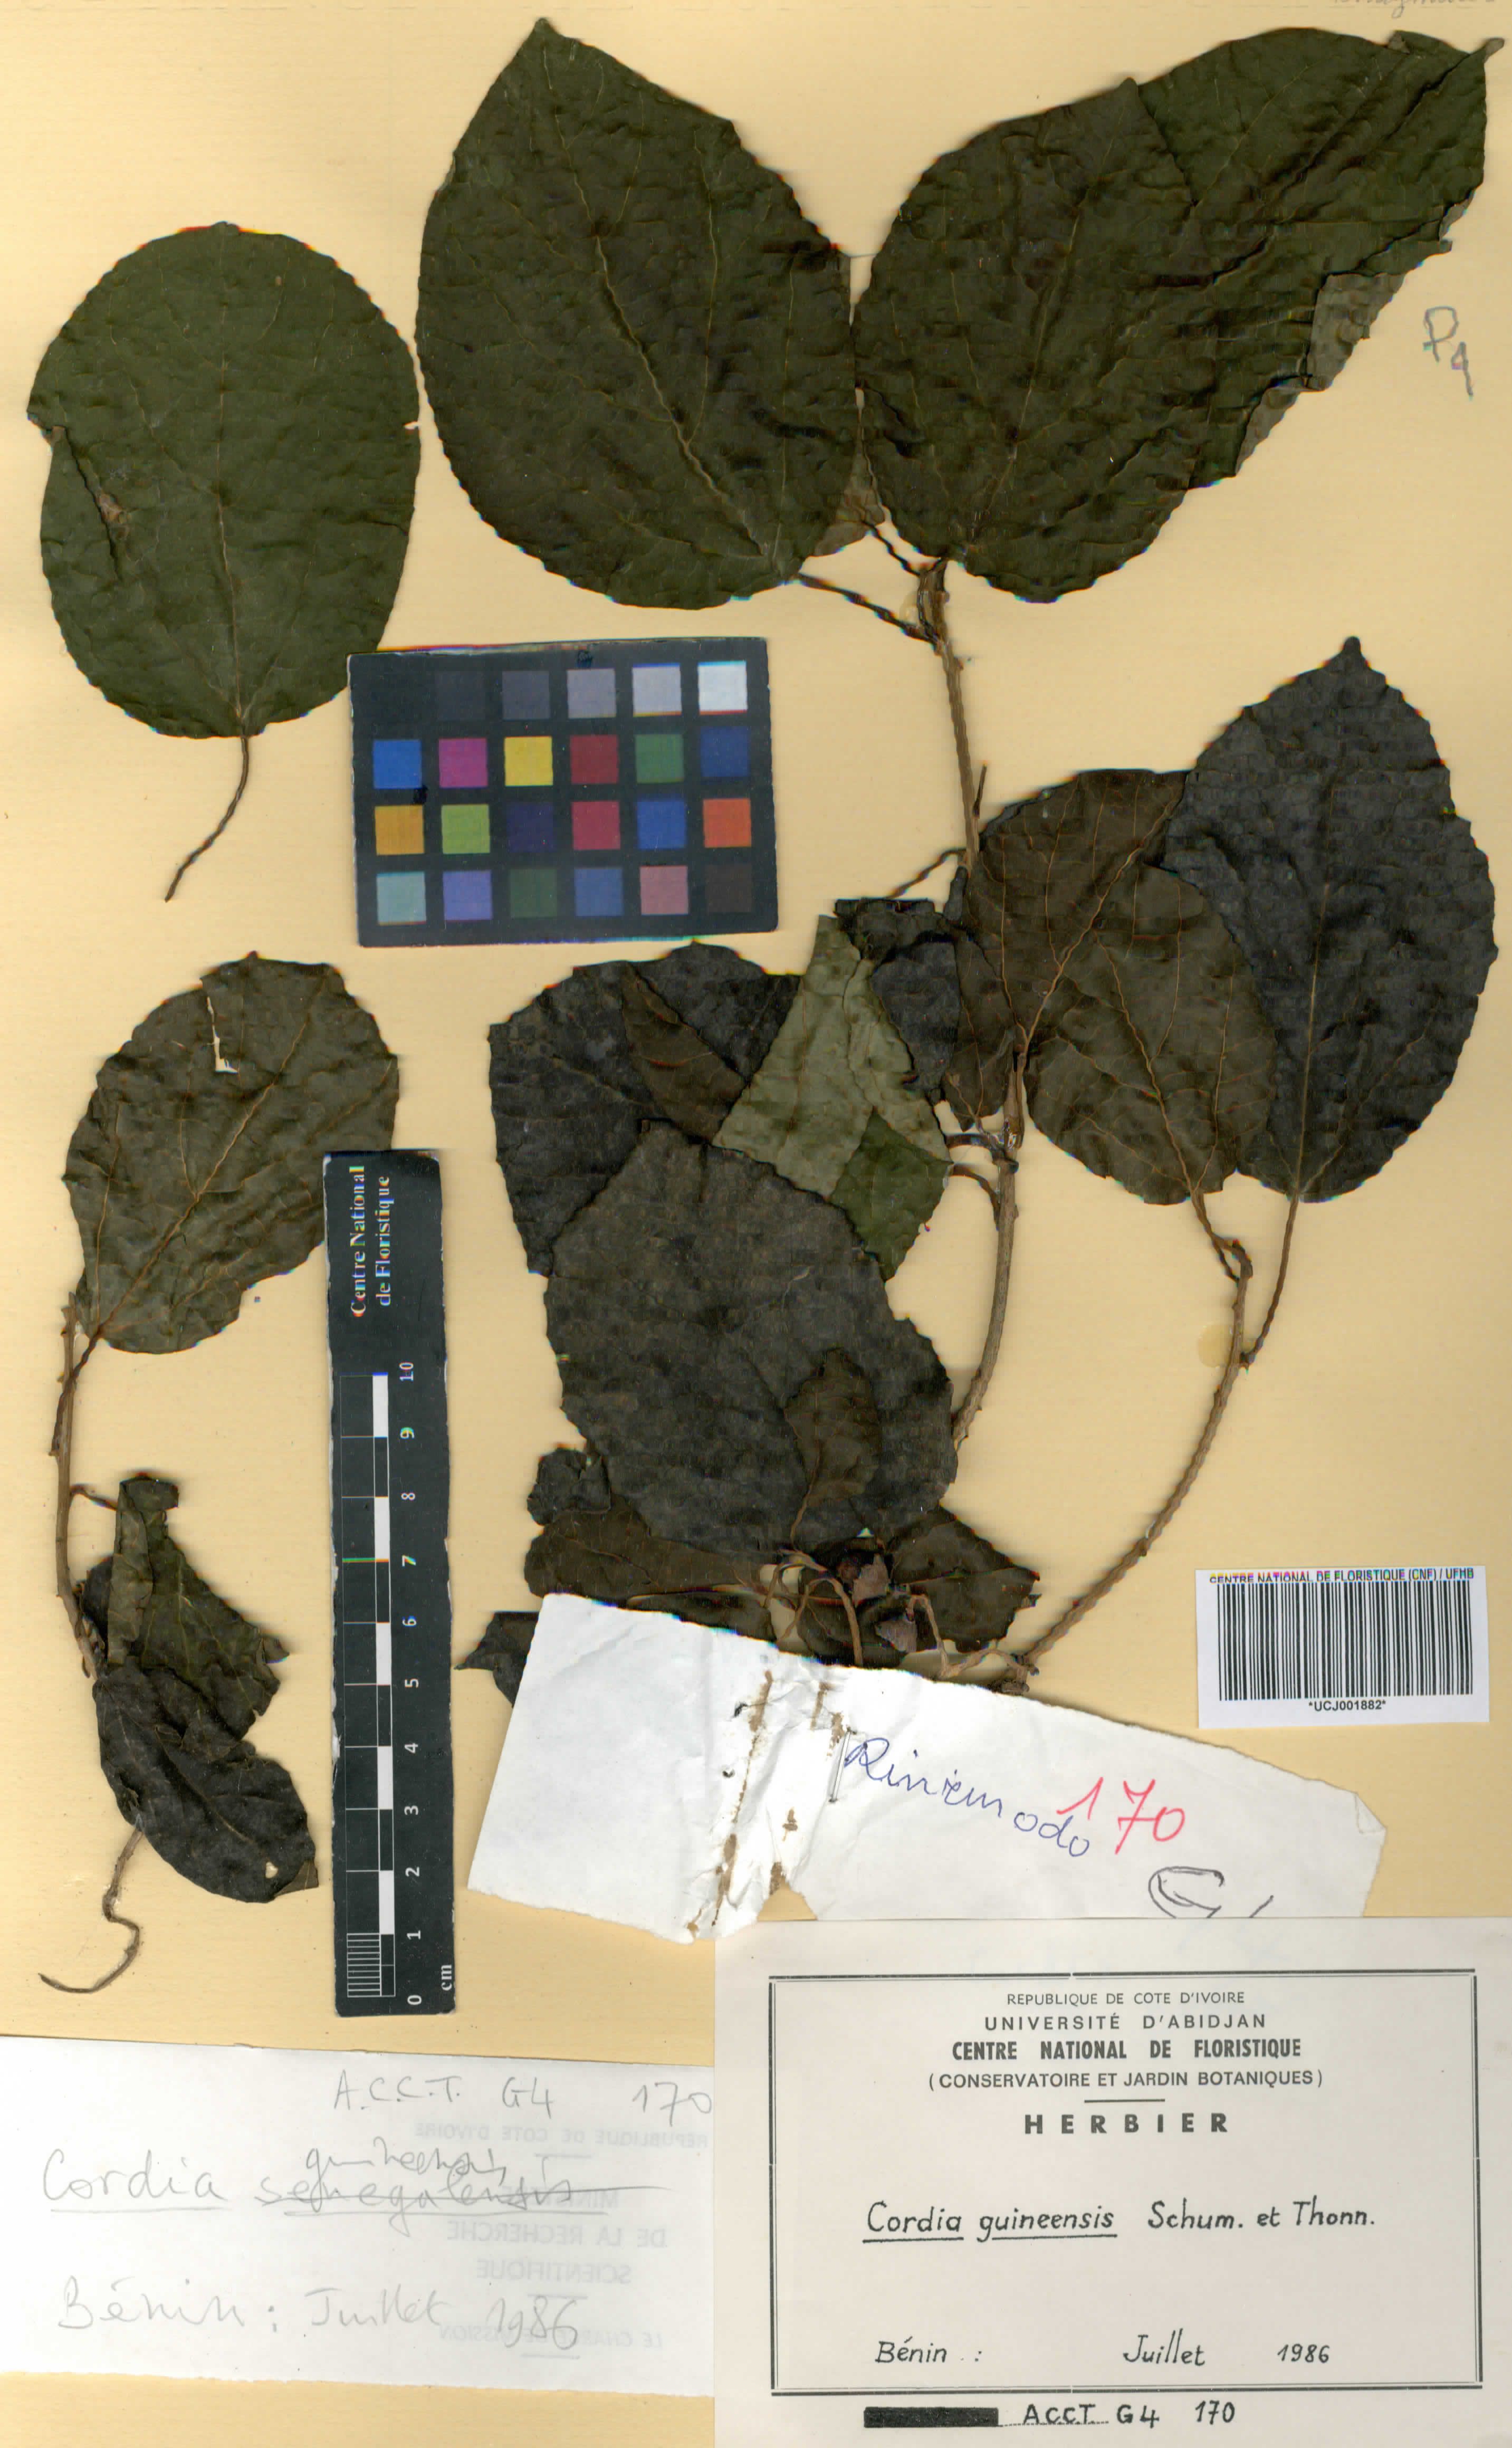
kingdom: Plantae
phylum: Tracheophyta
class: Magnoliopsida
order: Boraginales
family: Cordiaceae
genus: Cordia
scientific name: Cordia guineensis
